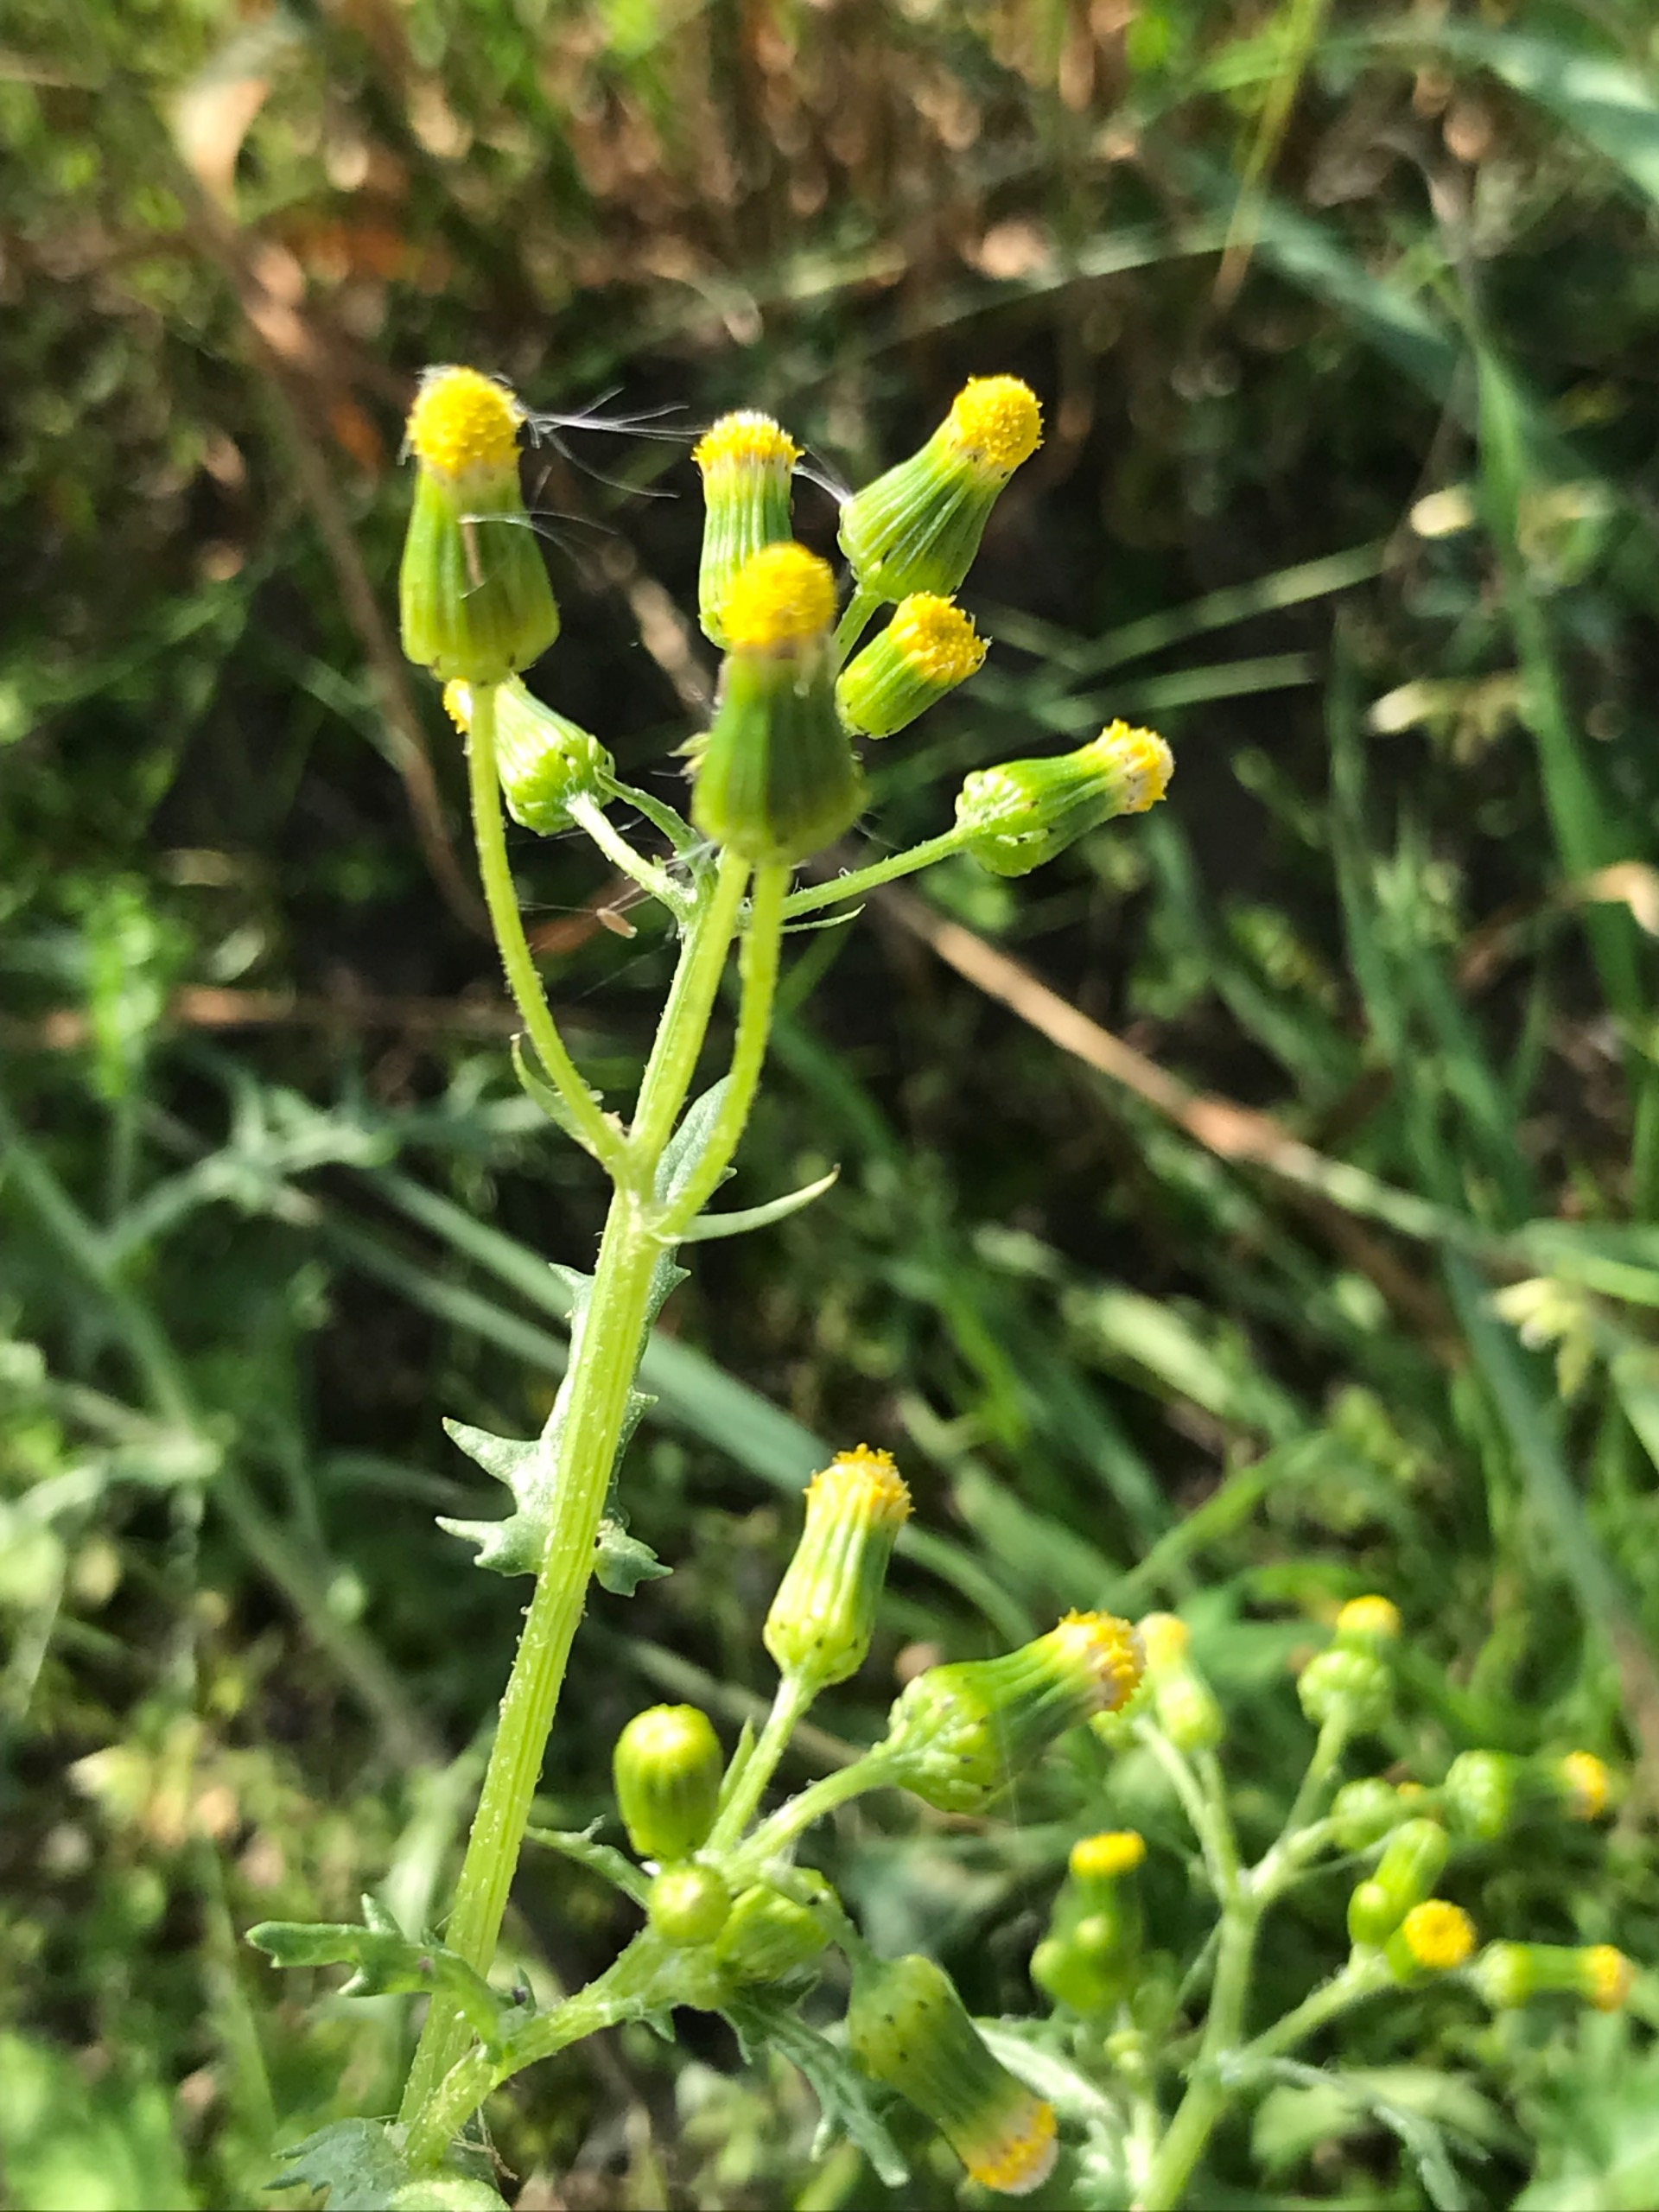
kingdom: Plantae
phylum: Tracheophyta
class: Magnoliopsida
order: Asterales
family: Asteraceae
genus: Senecio
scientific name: Senecio vulgaris
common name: Almindelig brandbæger
